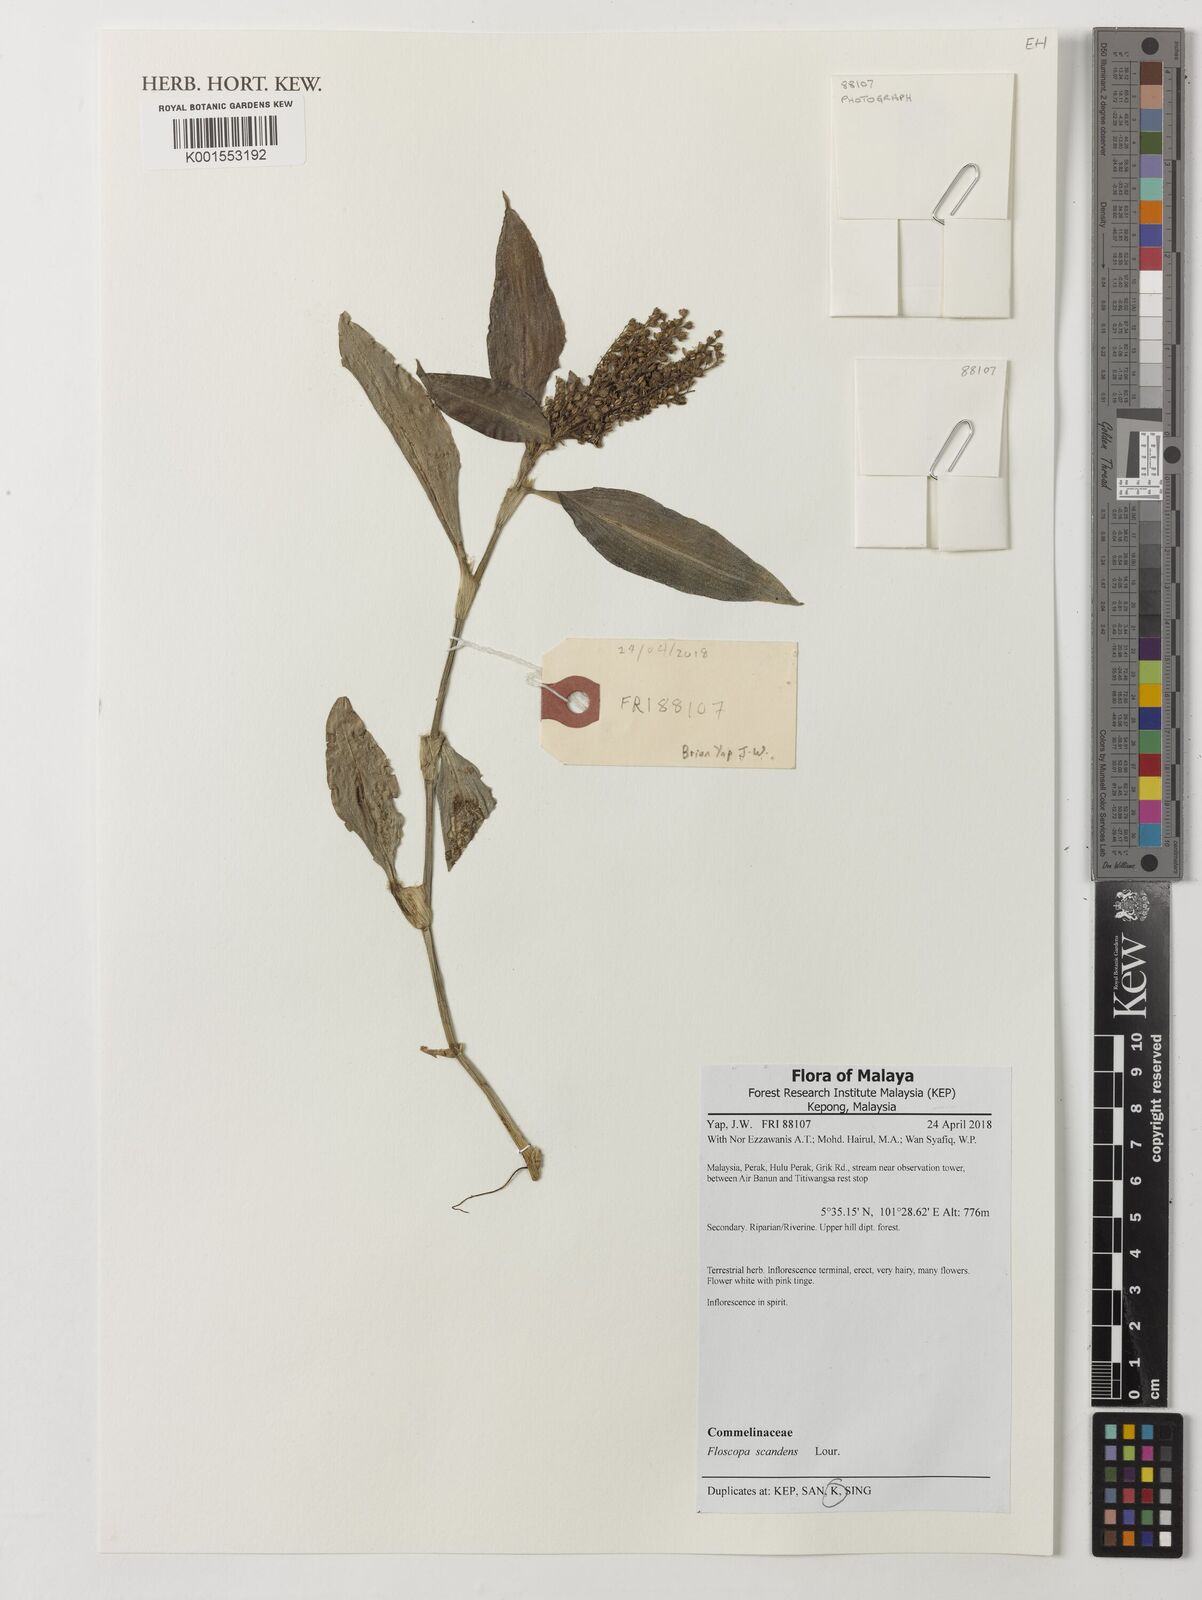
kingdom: Plantae
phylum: Tracheophyta
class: Liliopsida
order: Commelinales
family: Commelinaceae
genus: Floscopa
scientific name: Floscopa scandens
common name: Climbing flower cup
